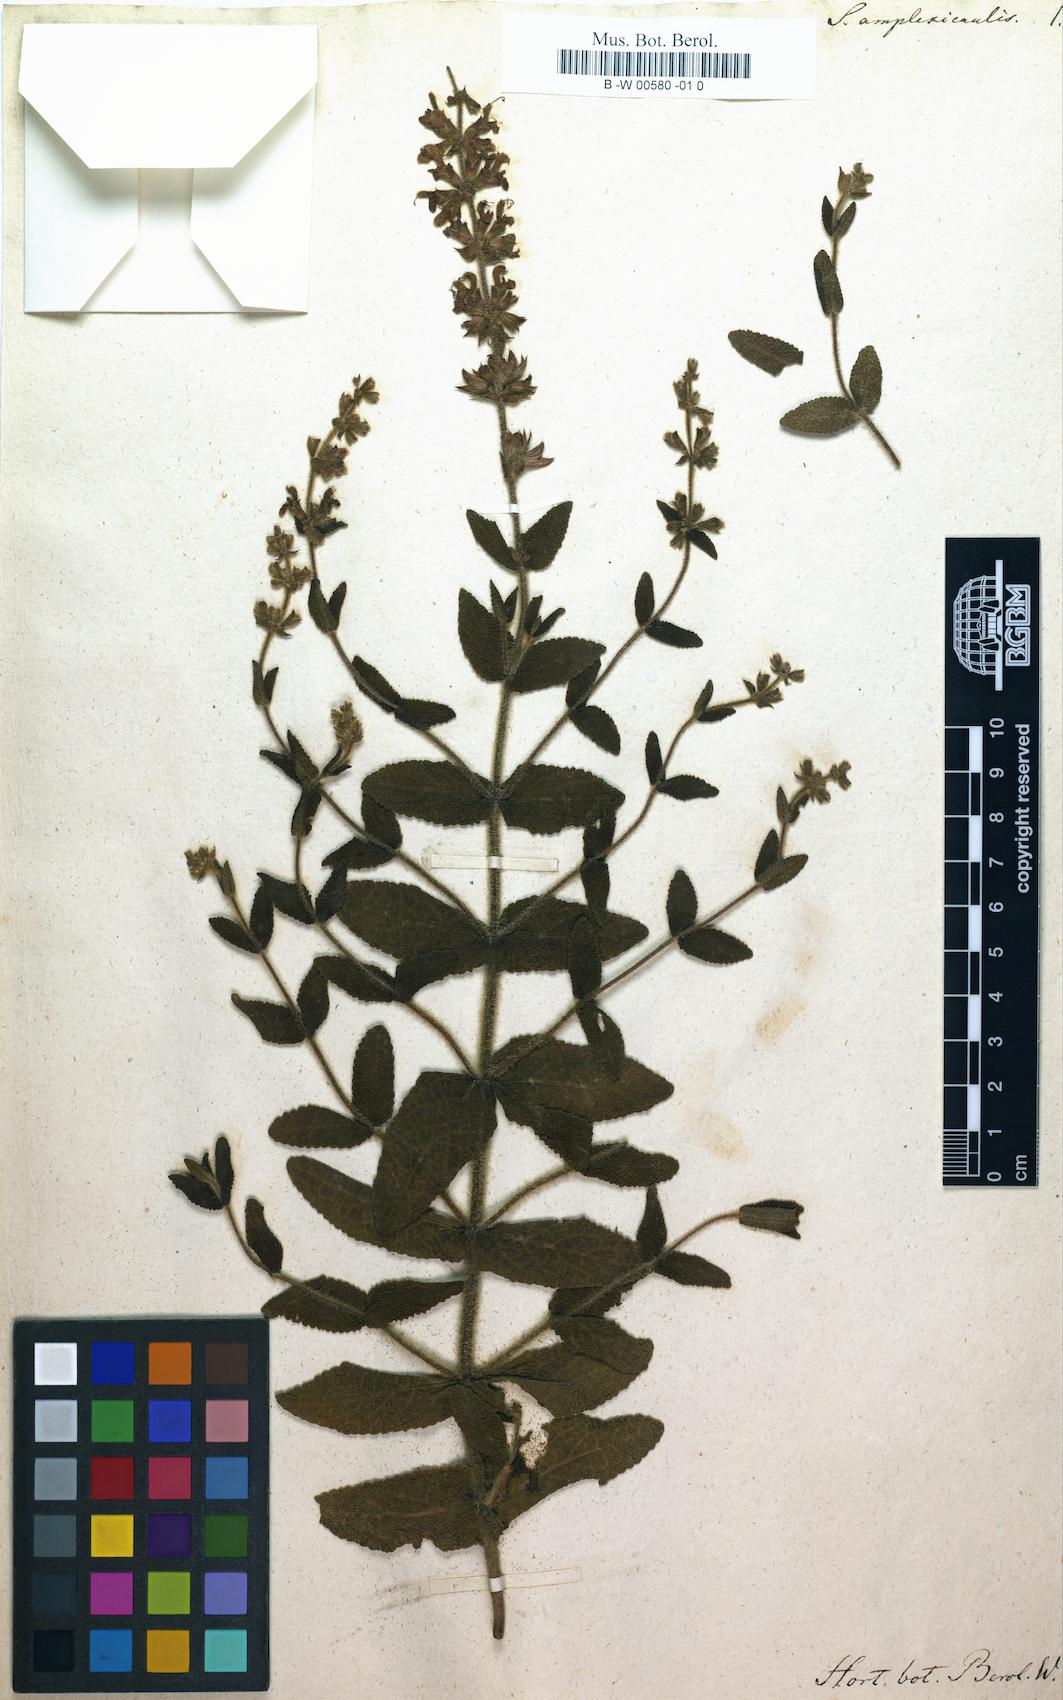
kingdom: Plantae
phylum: Tracheophyta
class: Magnoliopsida
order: Lamiales
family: Lamiaceae
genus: Salvia
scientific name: Salvia amplexicaulis
